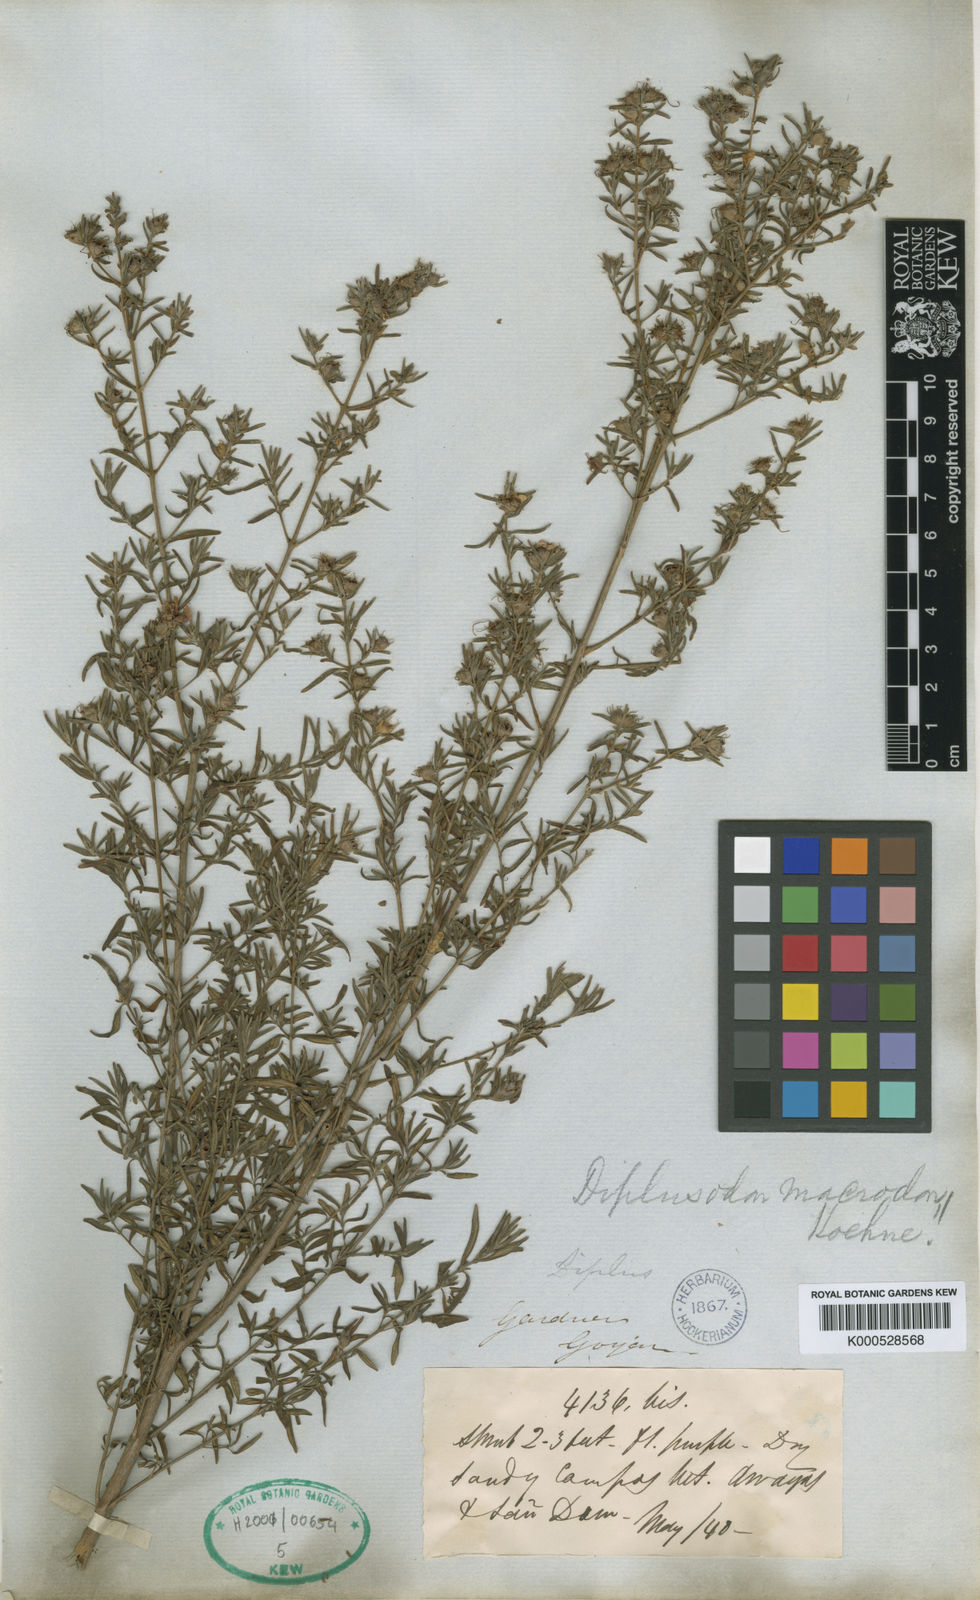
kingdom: Plantae
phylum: Tracheophyta
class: Magnoliopsida
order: Myrtales
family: Lythraceae
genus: Diplusodon
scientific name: Diplusodon macrodon
